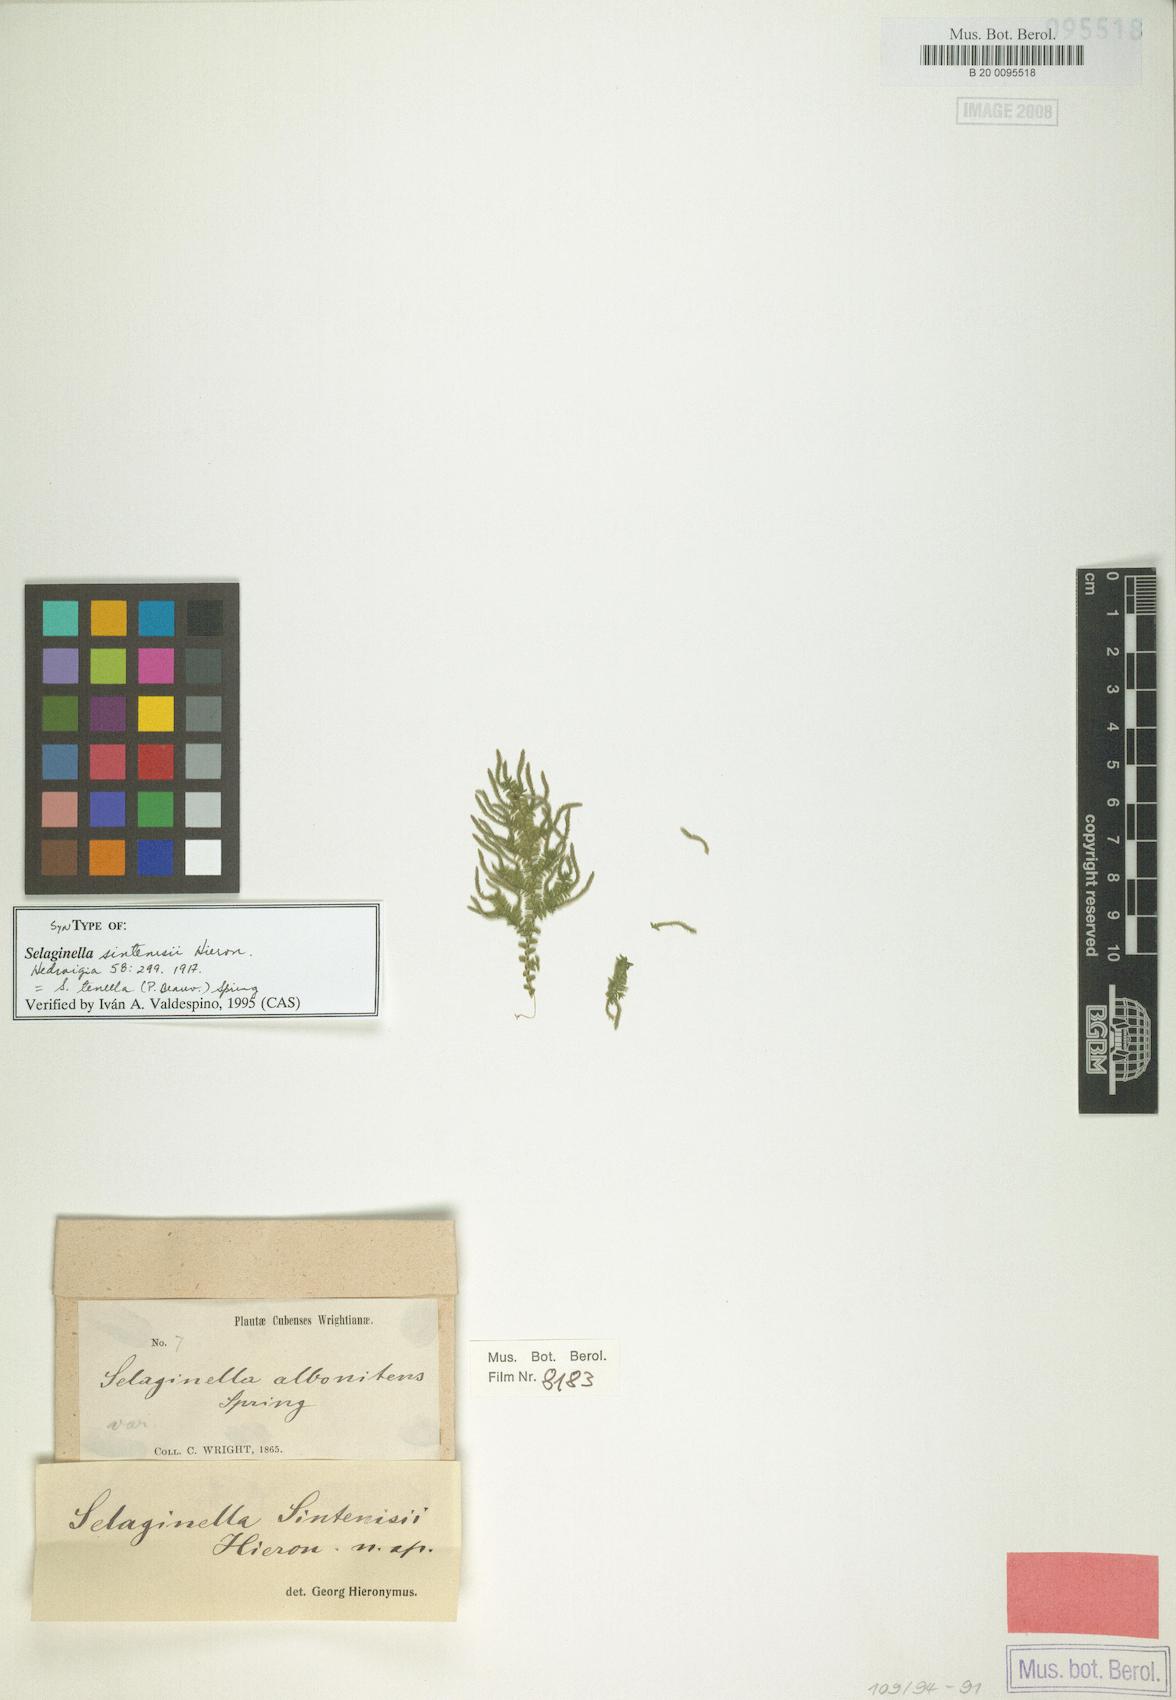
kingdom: Plantae
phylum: Tracheophyta
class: Lycopodiopsida
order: Selaginellales
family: Selaginellaceae
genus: Selaginella
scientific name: Selaginella tenella
